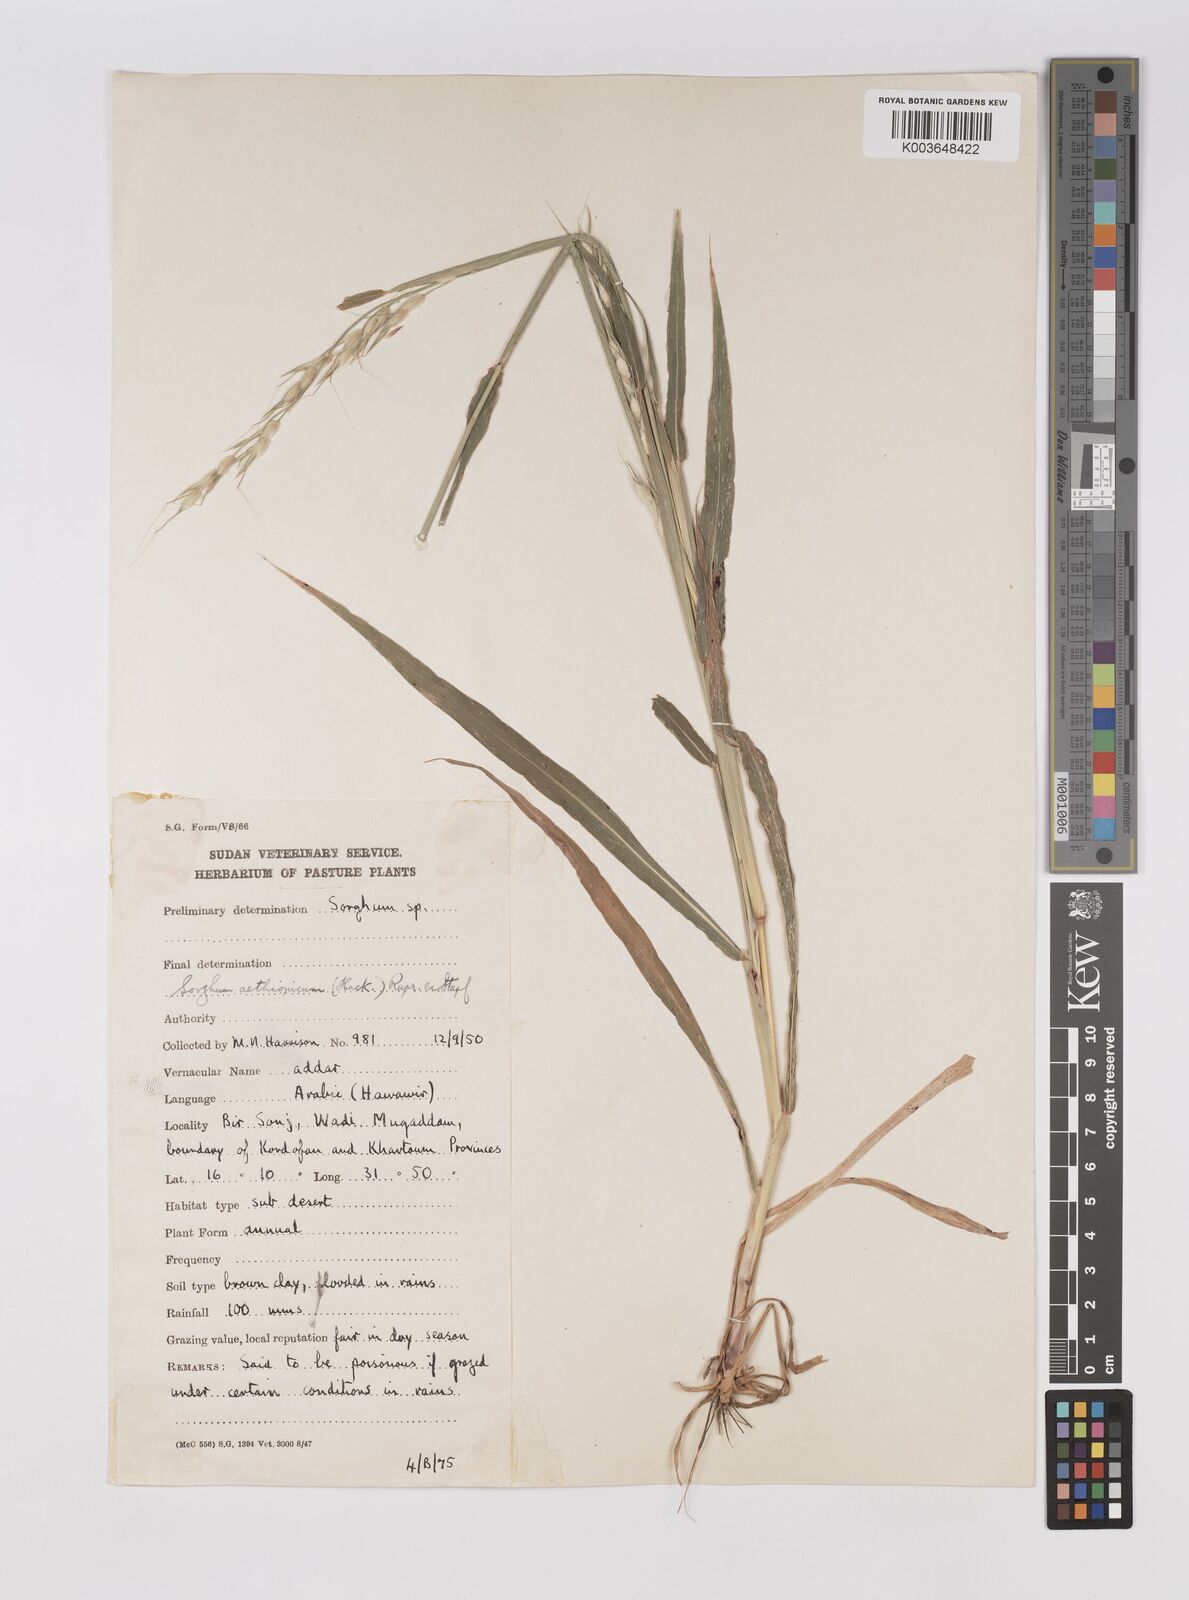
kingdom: Plantae
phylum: Tracheophyta
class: Liliopsida
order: Poales
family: Poaceae
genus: Sorghum
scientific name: Sorghum arundinaceum
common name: Sorghum
